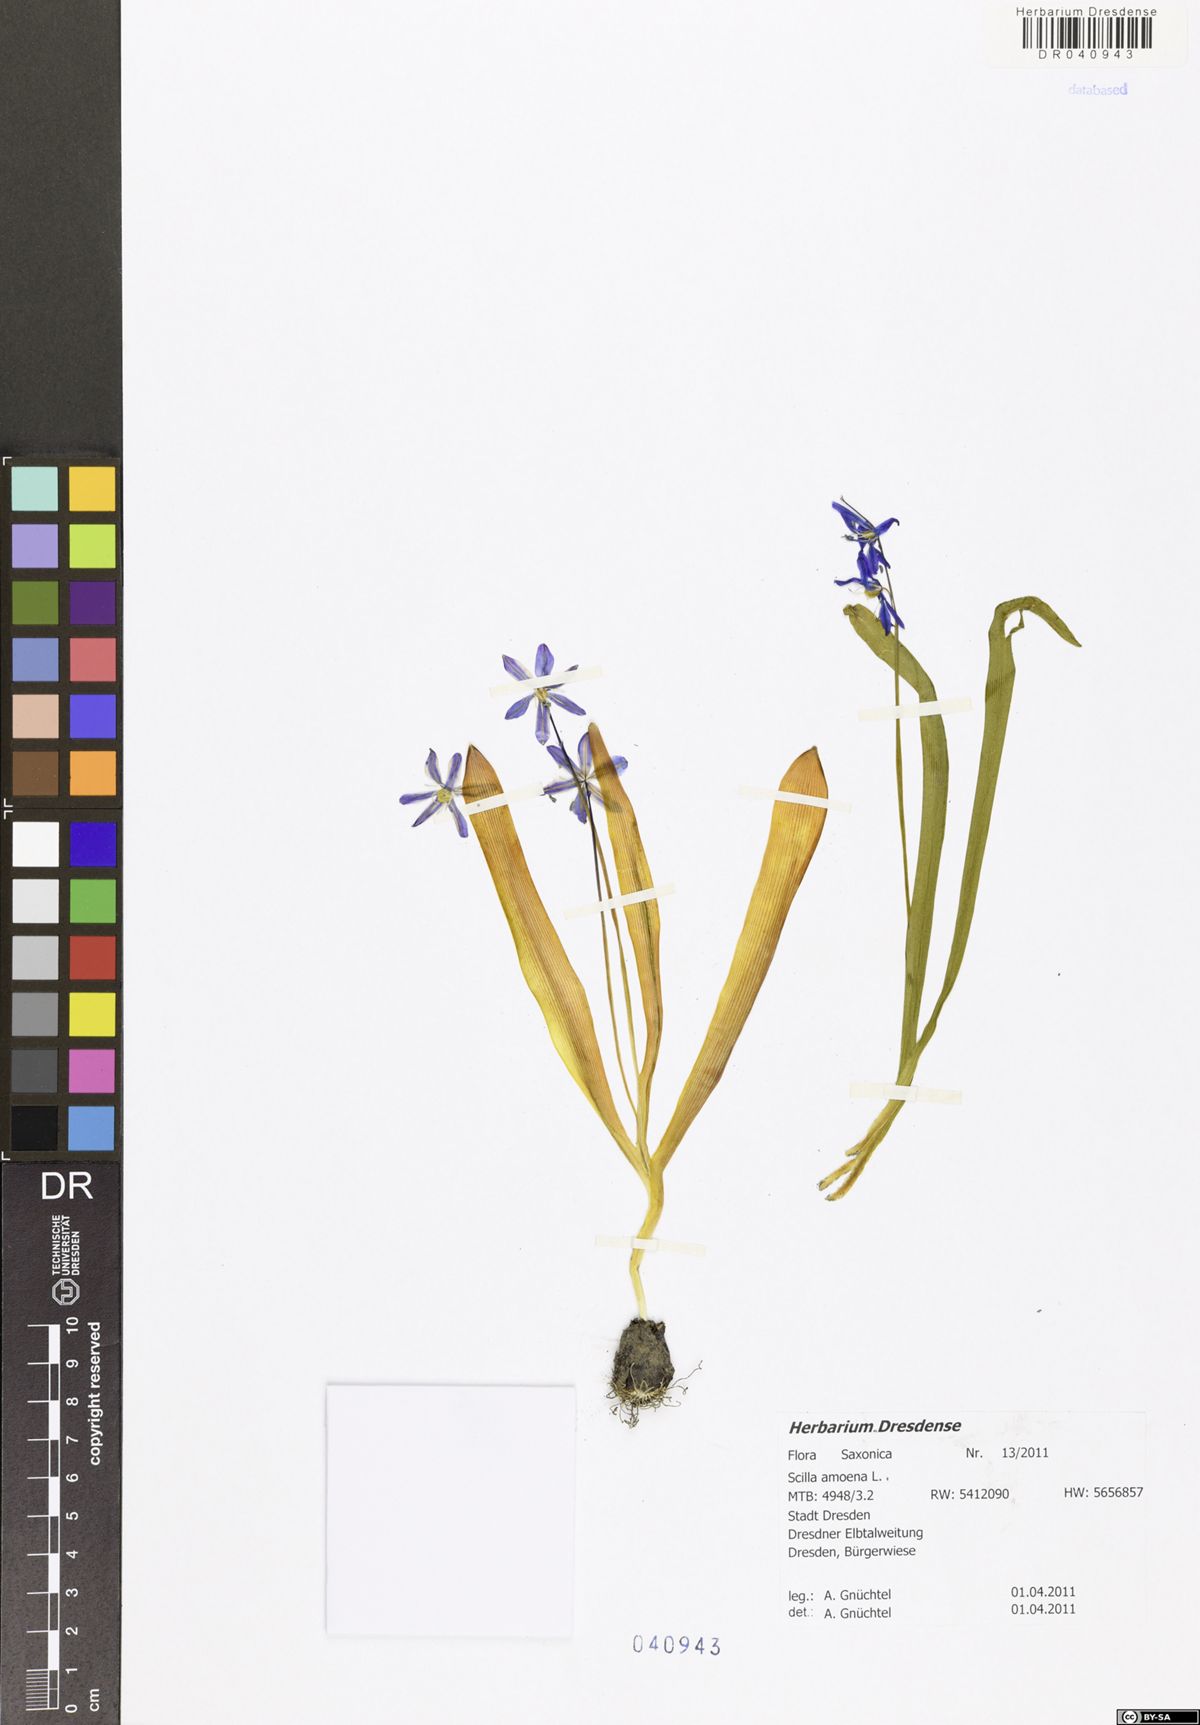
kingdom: Plantae
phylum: Tracheophyta
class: Liliopsida
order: Asparagales
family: Asparagaceae
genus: Scilla
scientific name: Scilla amoena
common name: Star-hyacinth
